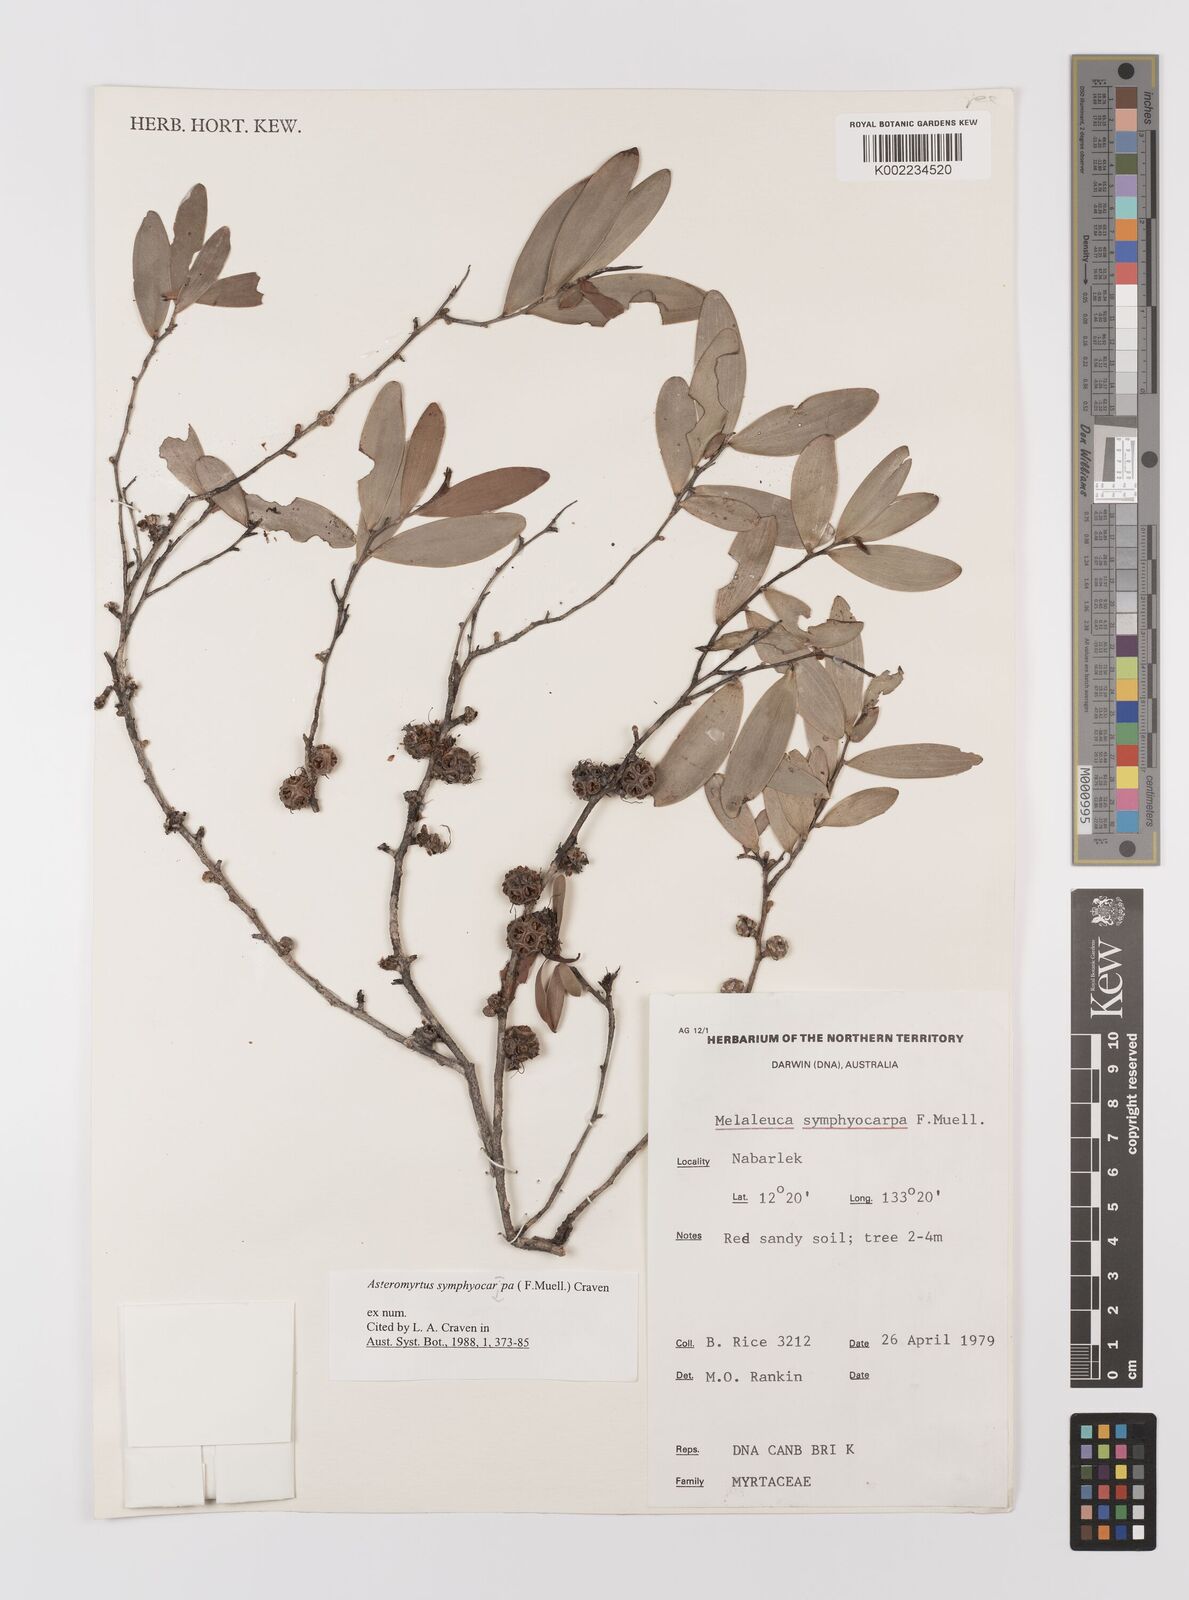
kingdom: Plantae
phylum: Tracheophyta
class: Magnoliopsida
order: Myrtales
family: Myrtaceae
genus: Asteromyrtus
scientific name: Asteromyrtus symphyocarpa
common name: Liniment-tree
